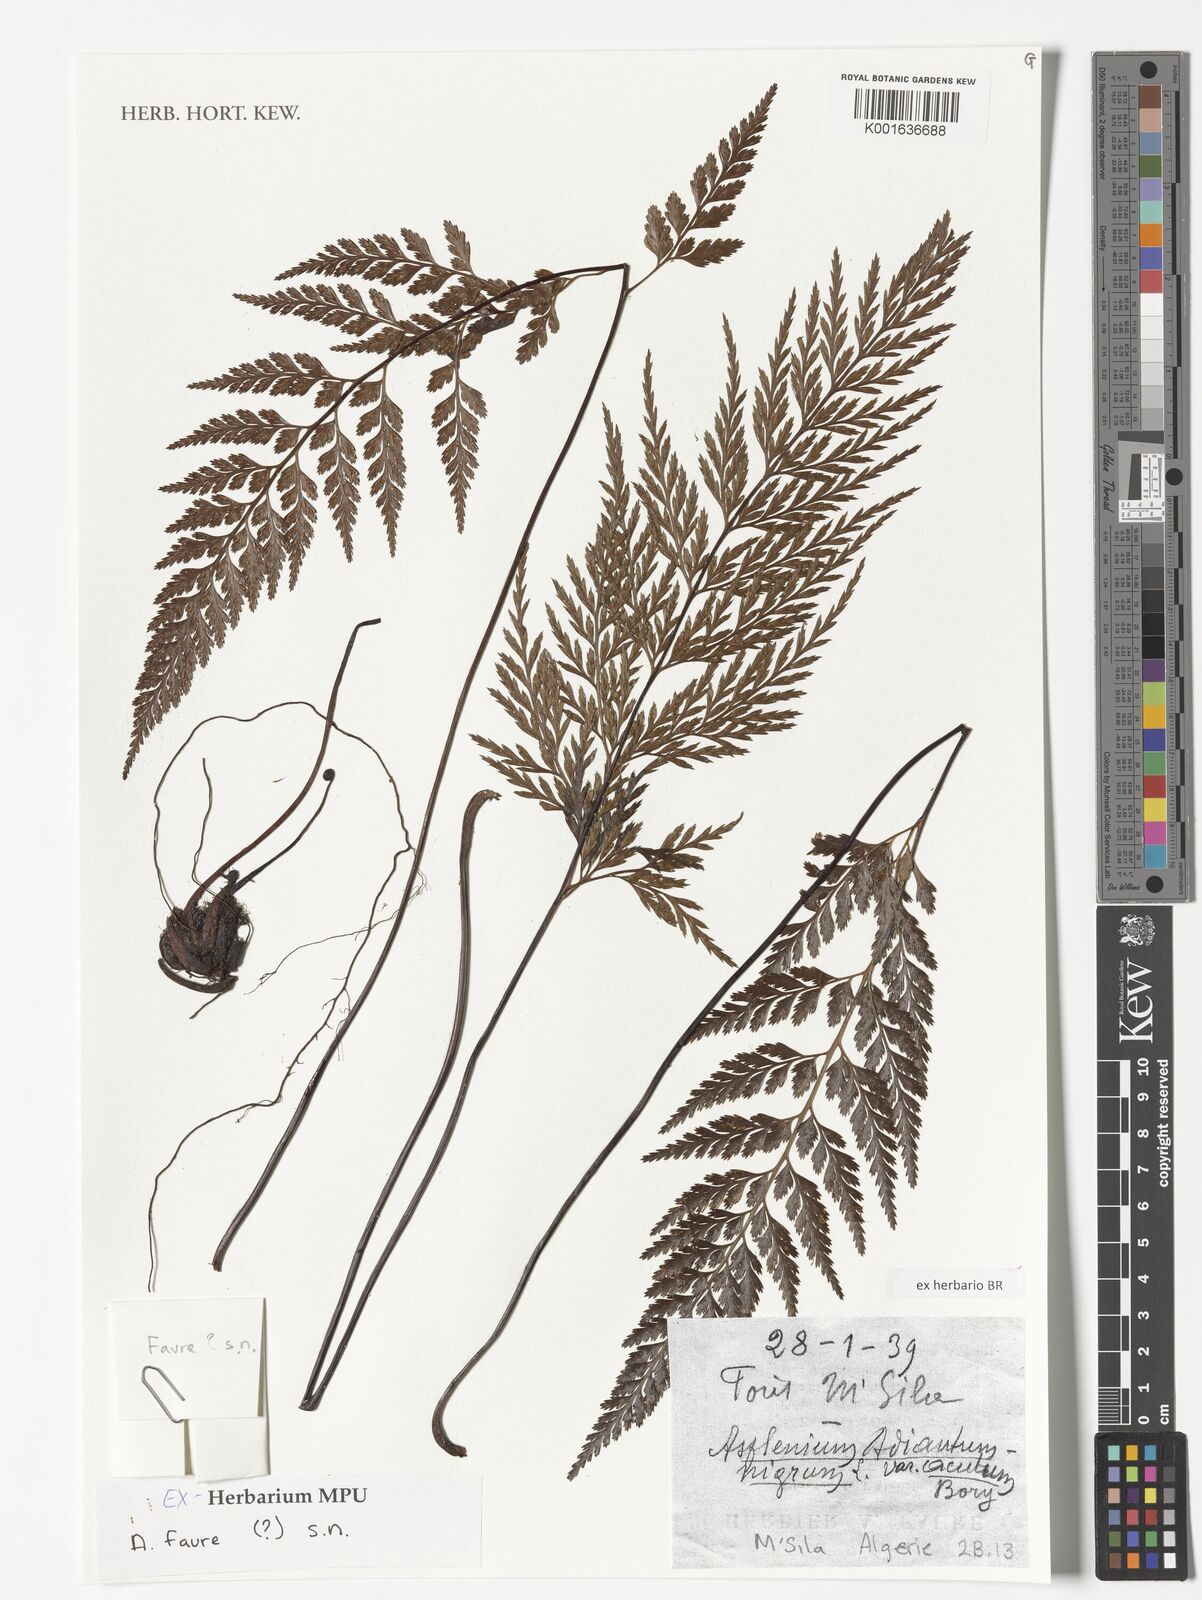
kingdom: Plantae
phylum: Tracheophyta
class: Polypodiopsida
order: Polypodiales
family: Aspleniaceae
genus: Asplenium
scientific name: Asplenium adiantum-nigrum
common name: Black spleenwort
